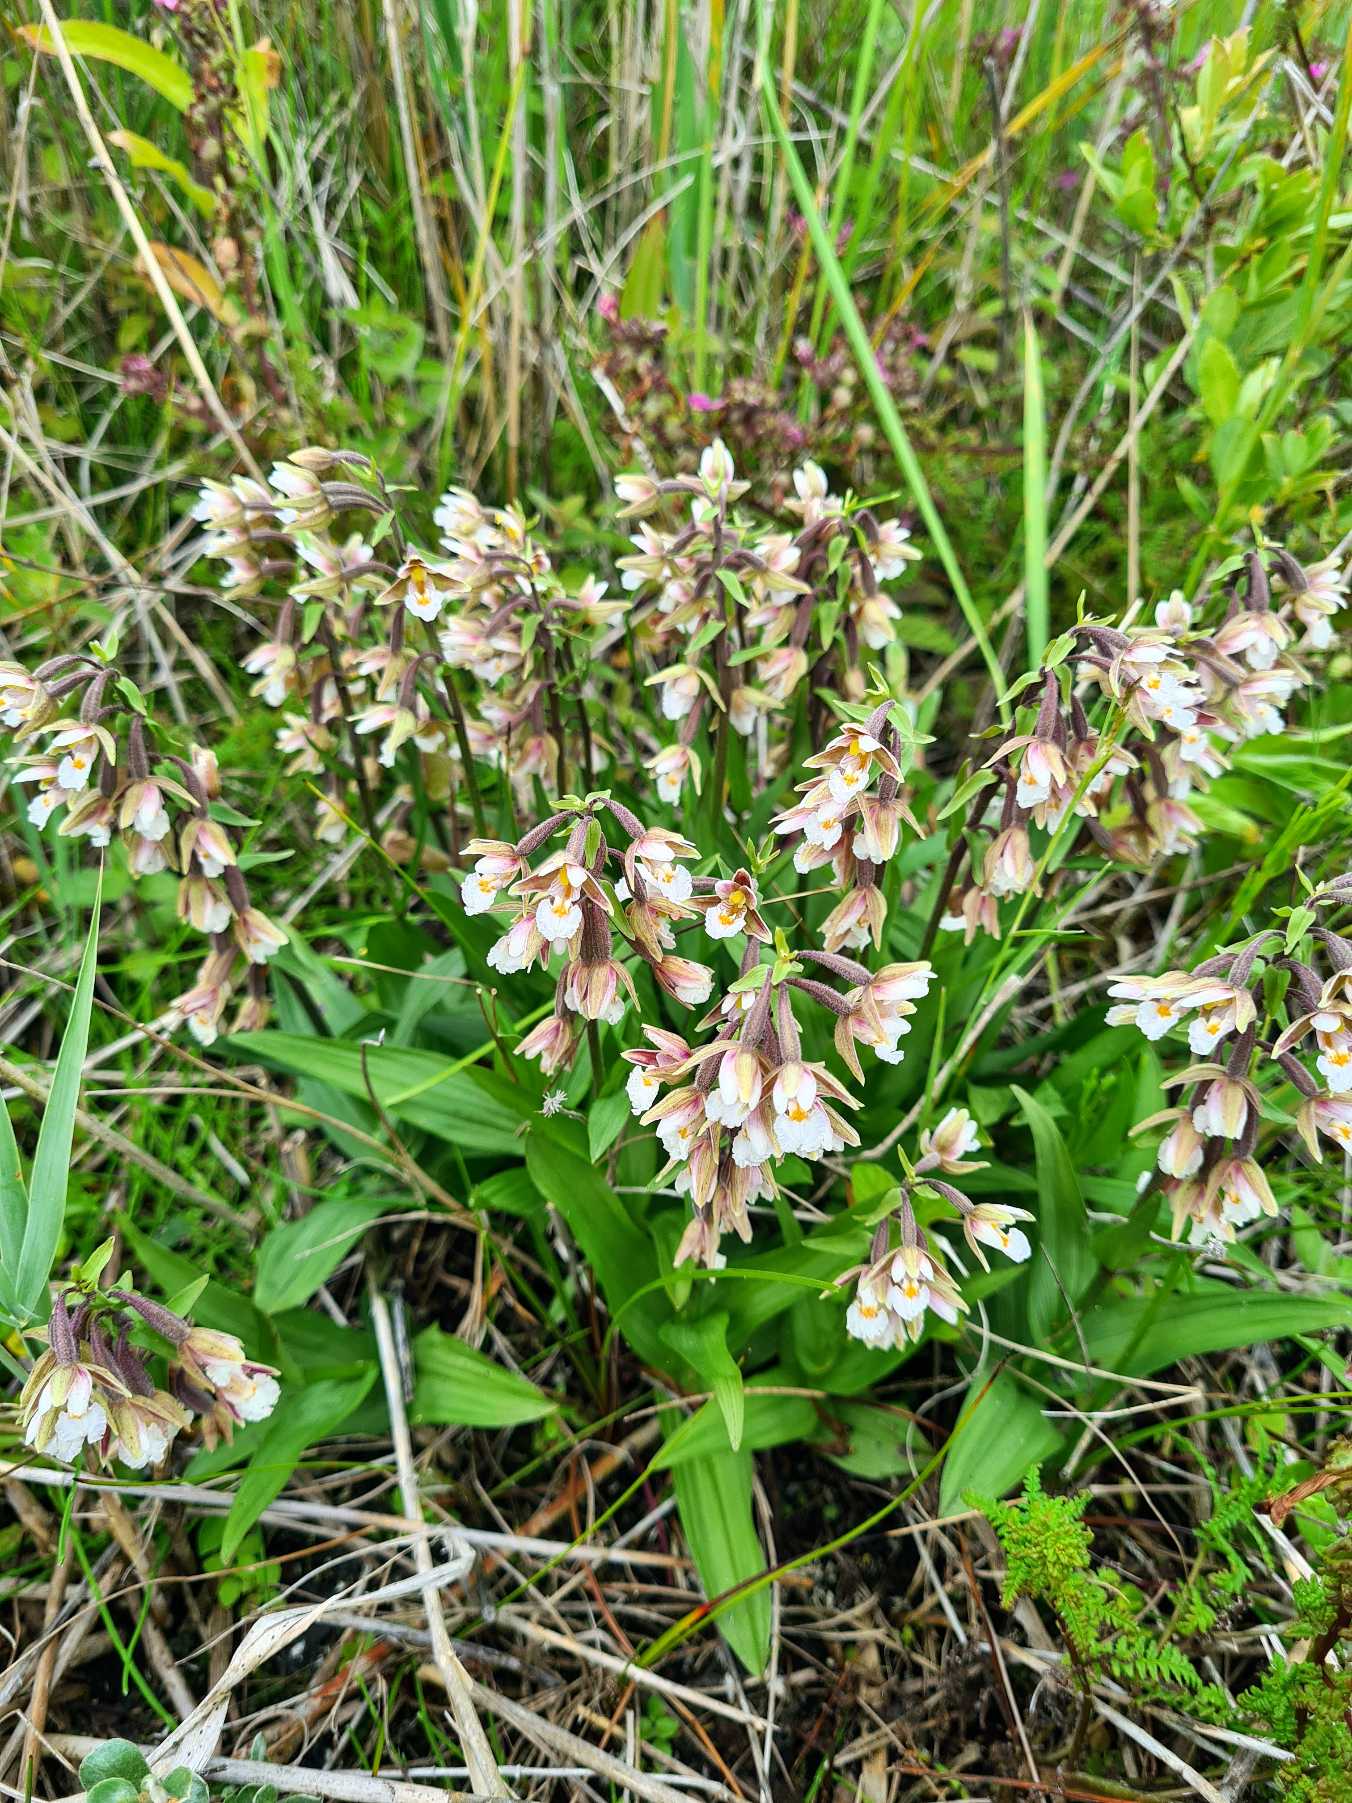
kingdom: Plantae
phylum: Tracheophyta
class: Liliopsida
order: Asparagales
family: Orchidaceae
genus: Epipactis
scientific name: Epipactis palustris
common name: Sump-hullæbe
